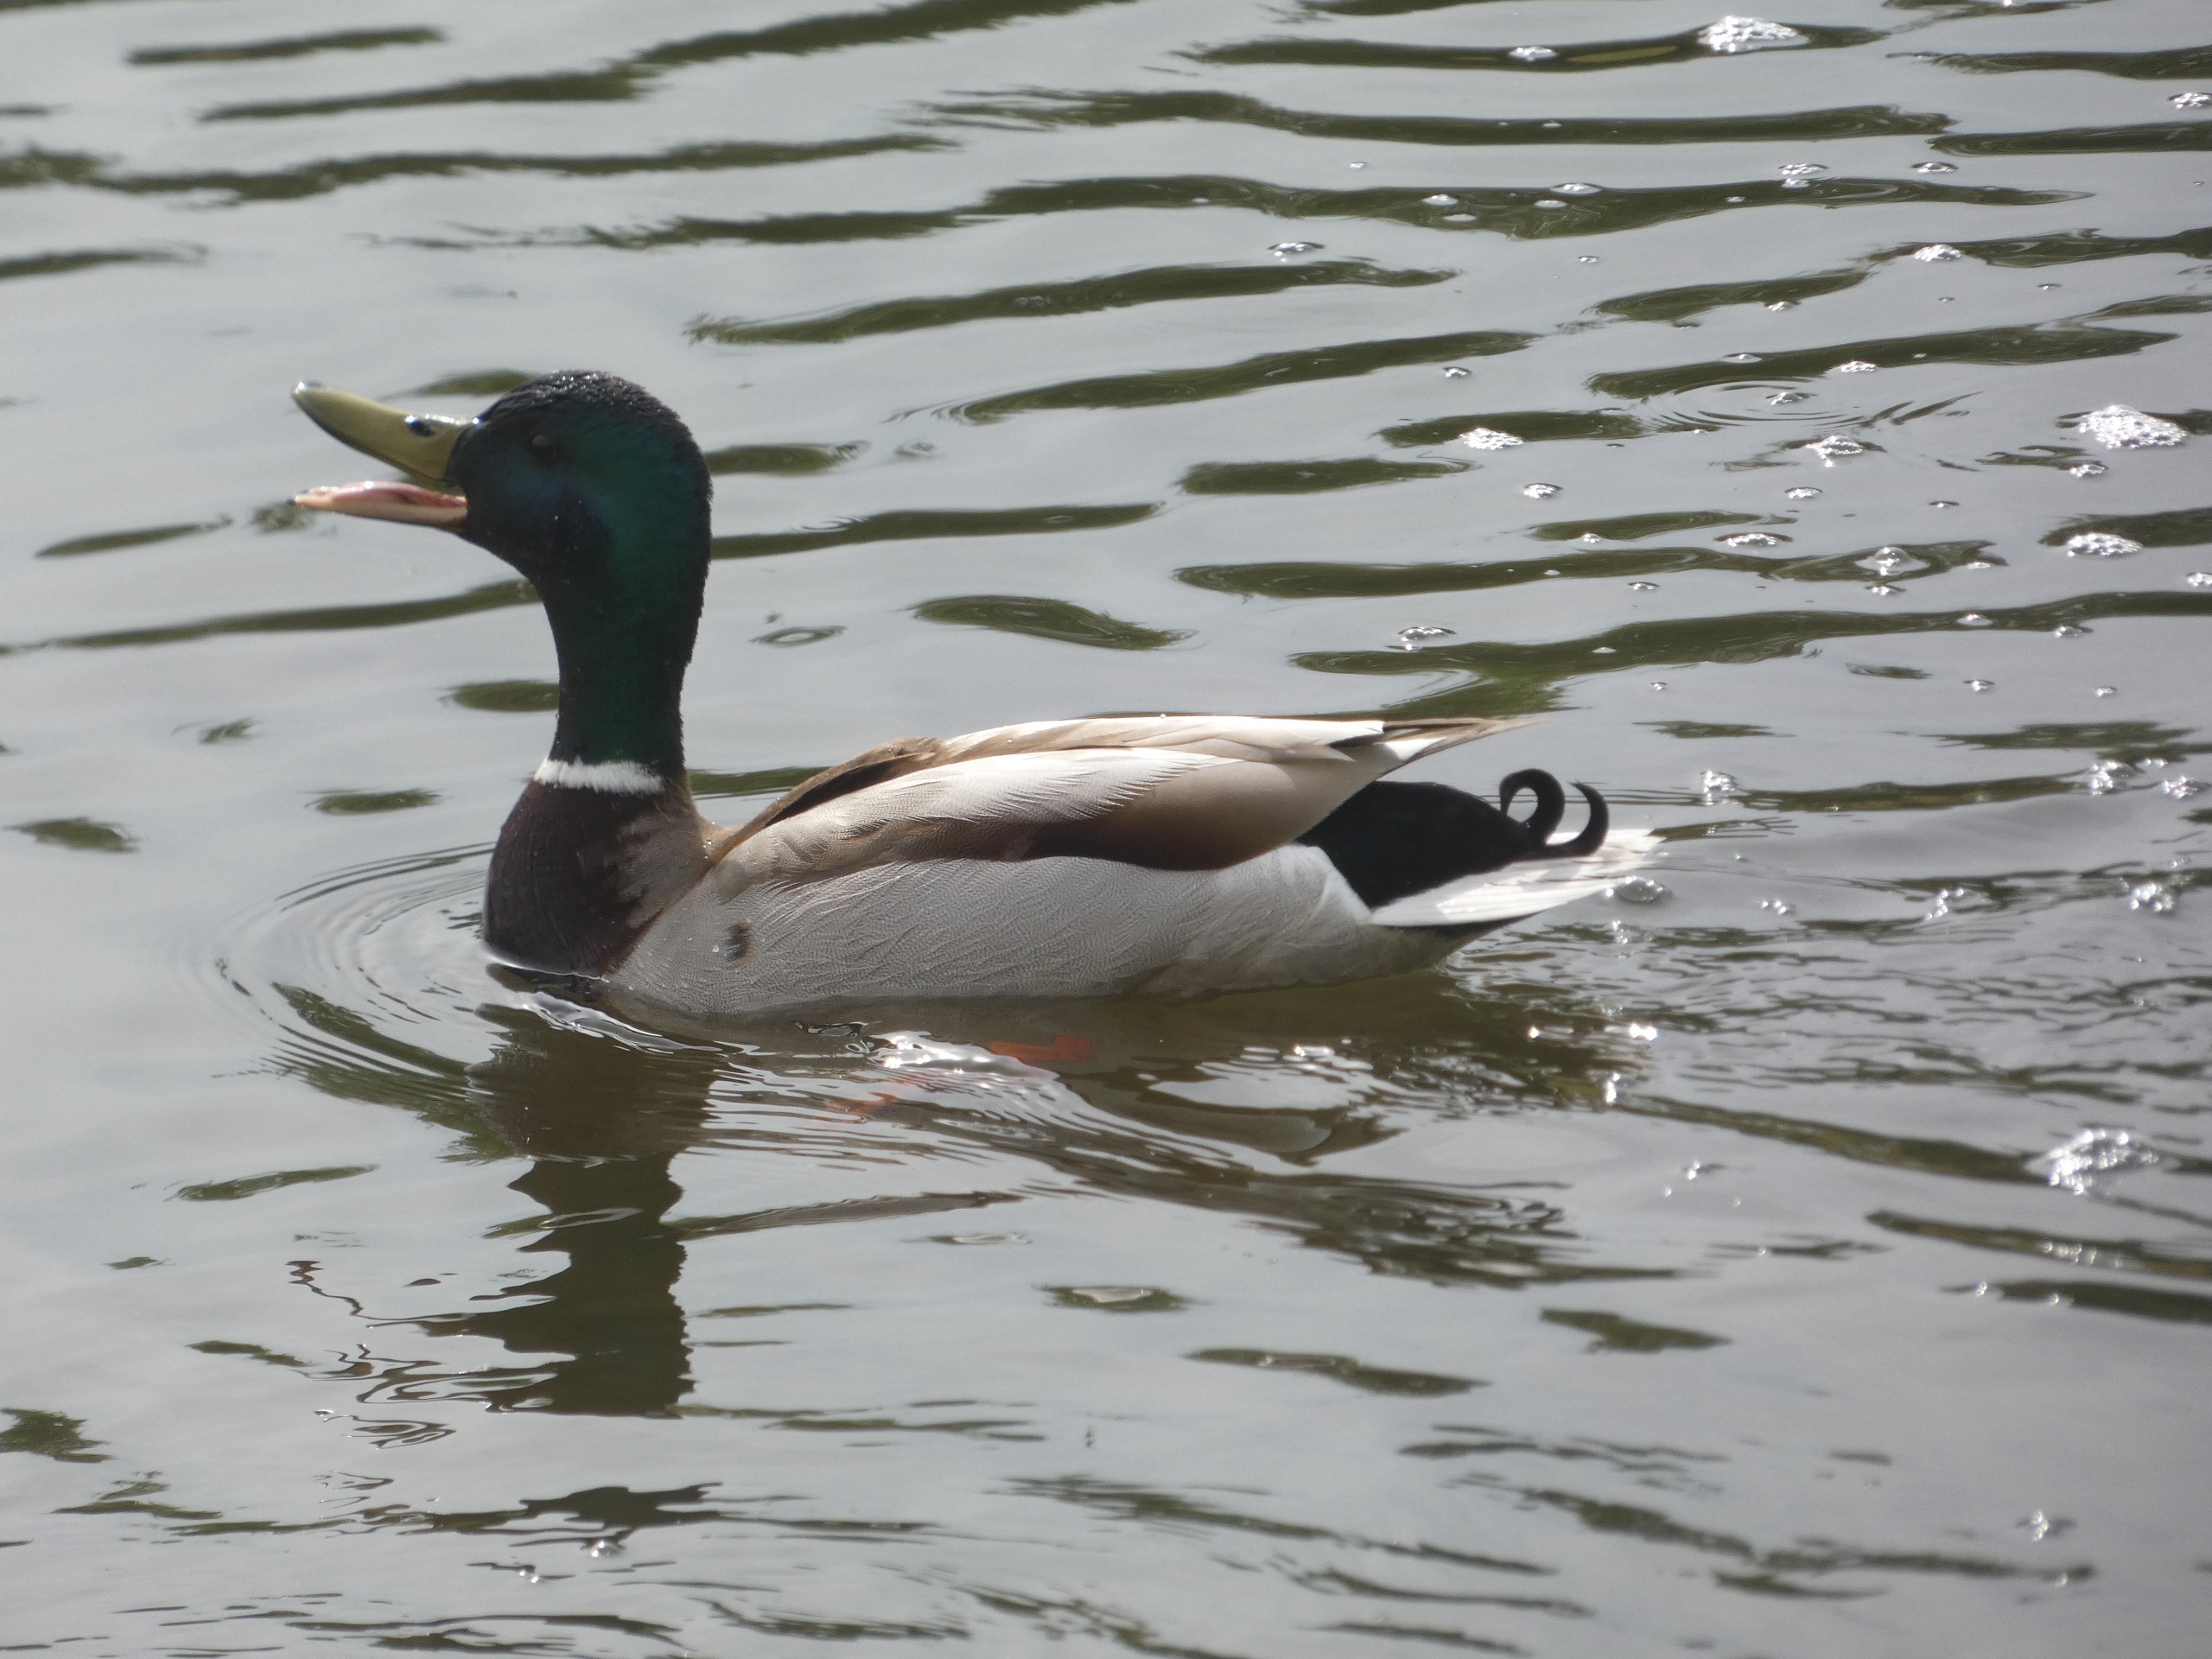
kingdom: Animalia
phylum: Chordata
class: Aves
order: Anseriformes
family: Anatidae
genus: Anas
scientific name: Anas platyrhynchos
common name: Gråand
